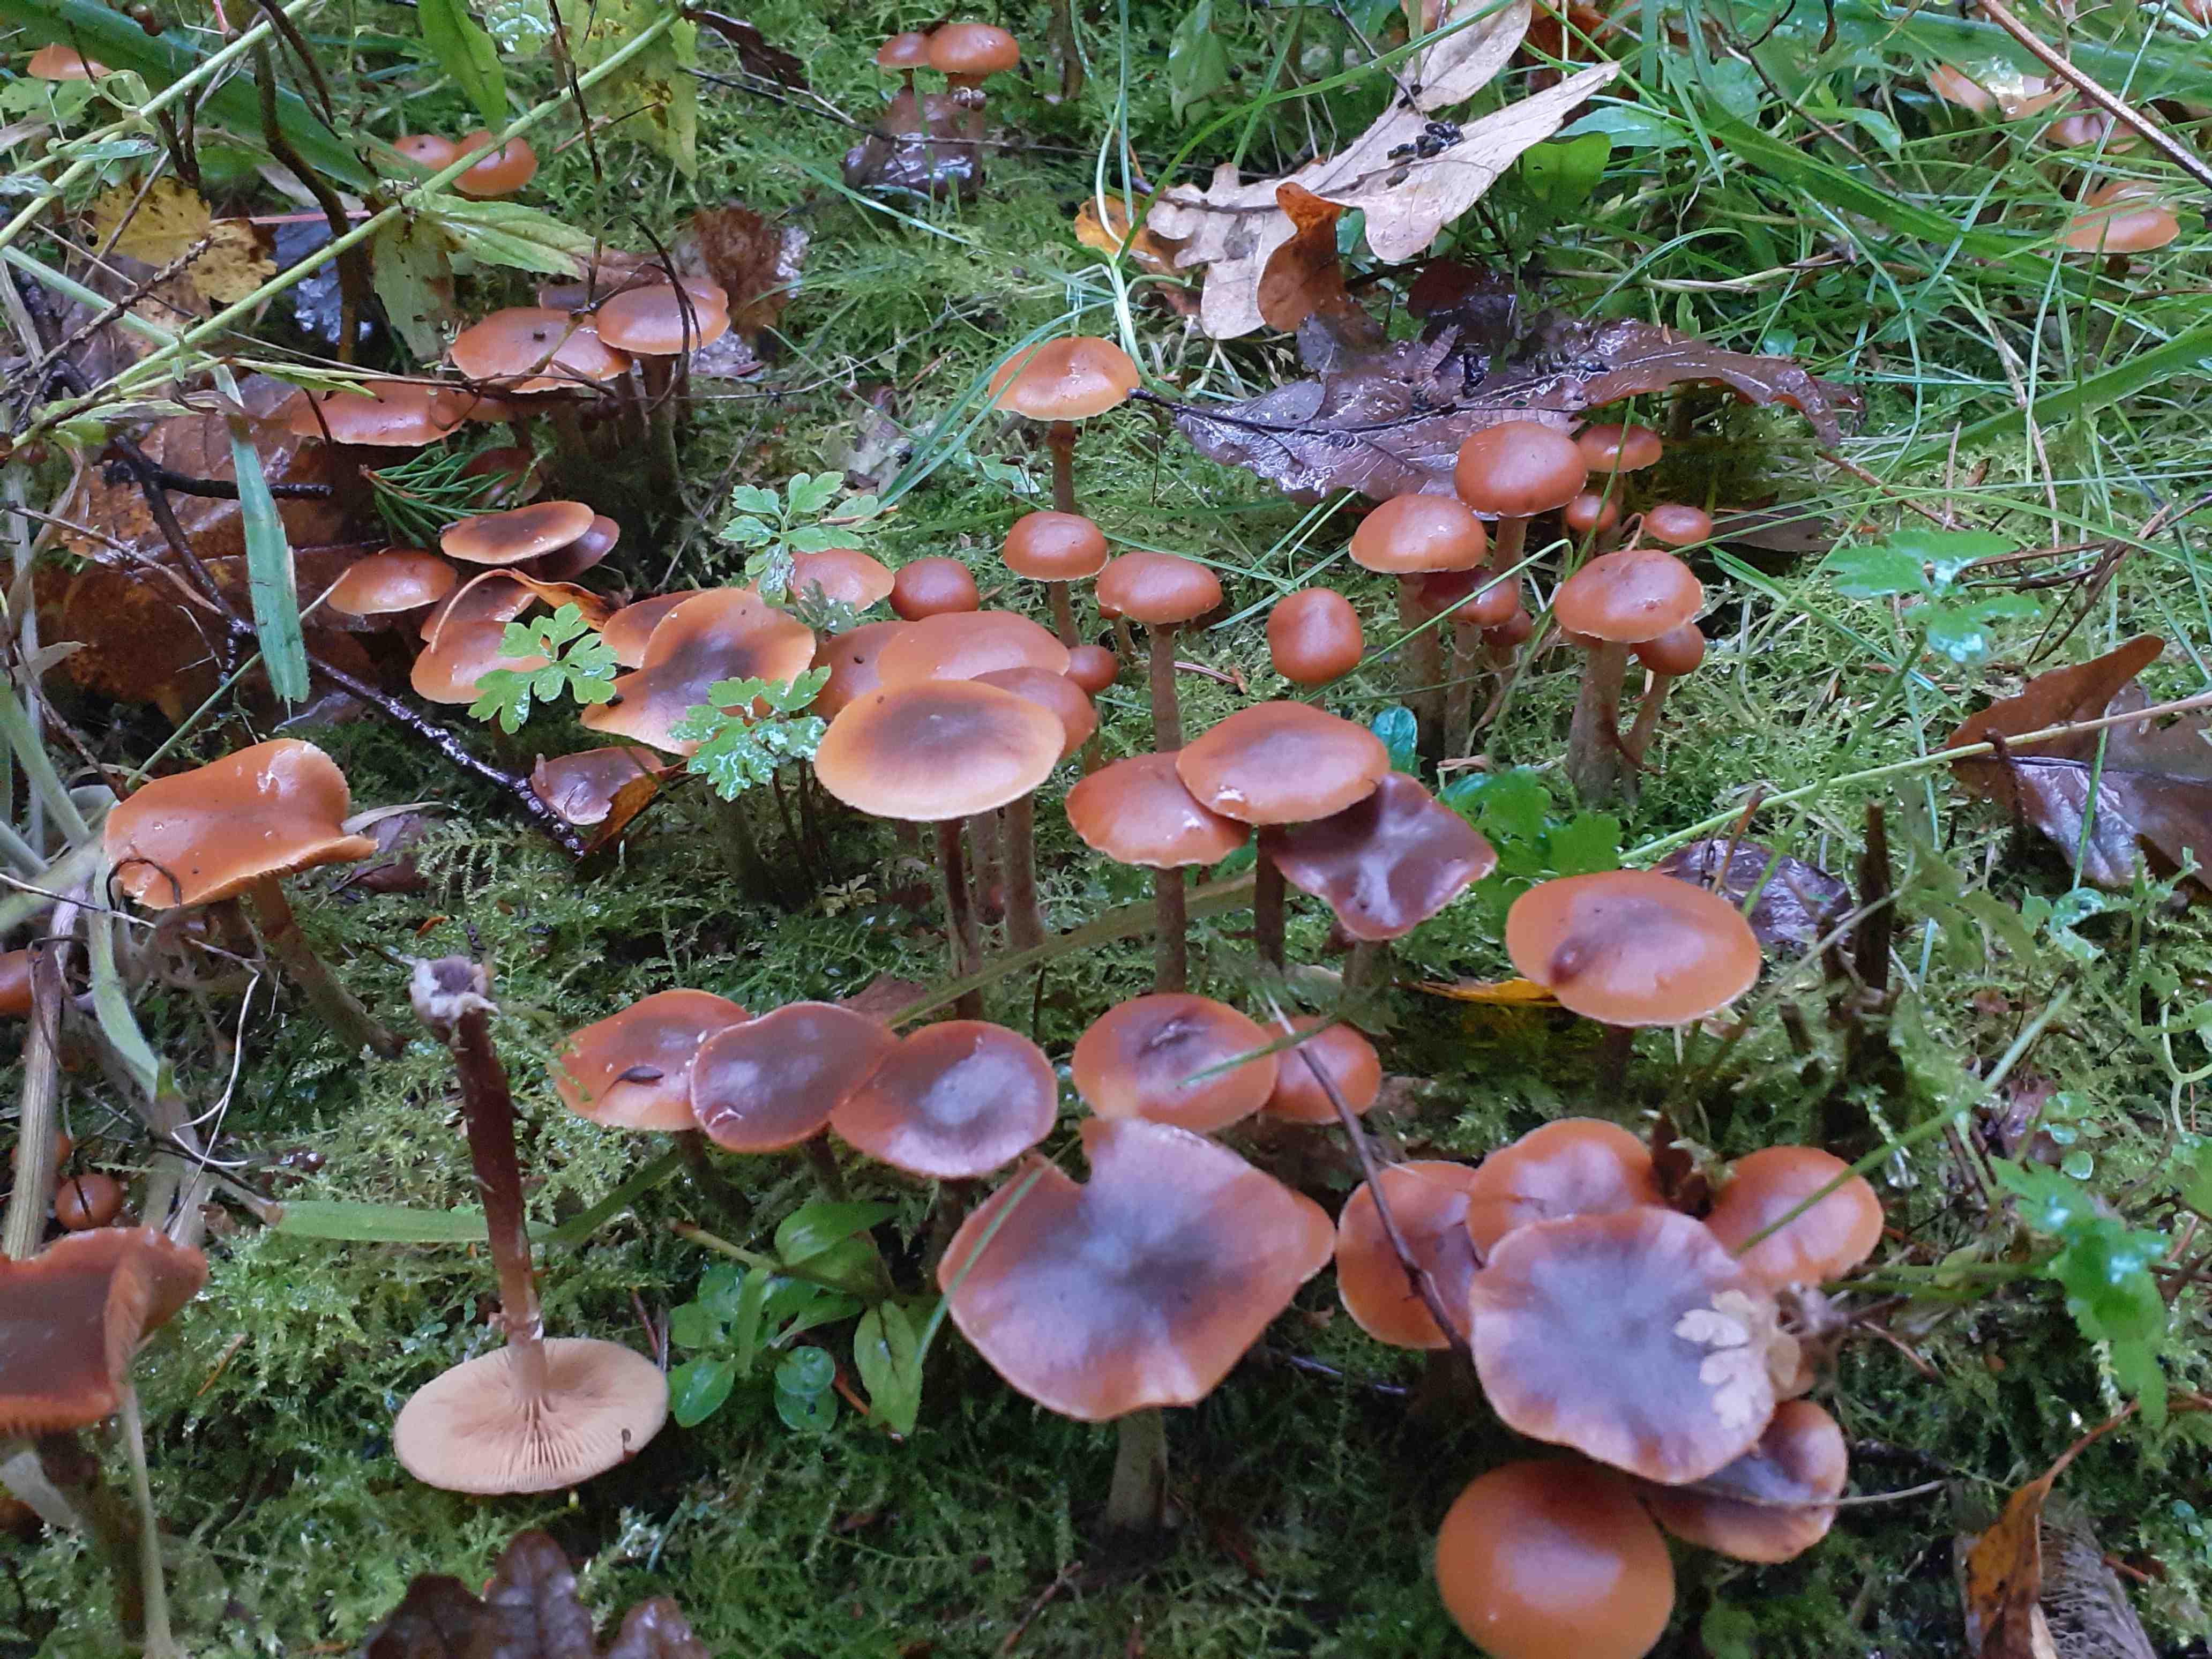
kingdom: Fungi
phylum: Basidiomycota
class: Agaricomycetes
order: Agaricales
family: Hymenogastraceae
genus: Galerina
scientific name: Galerina marginata
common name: randbæltet hjelmhat
